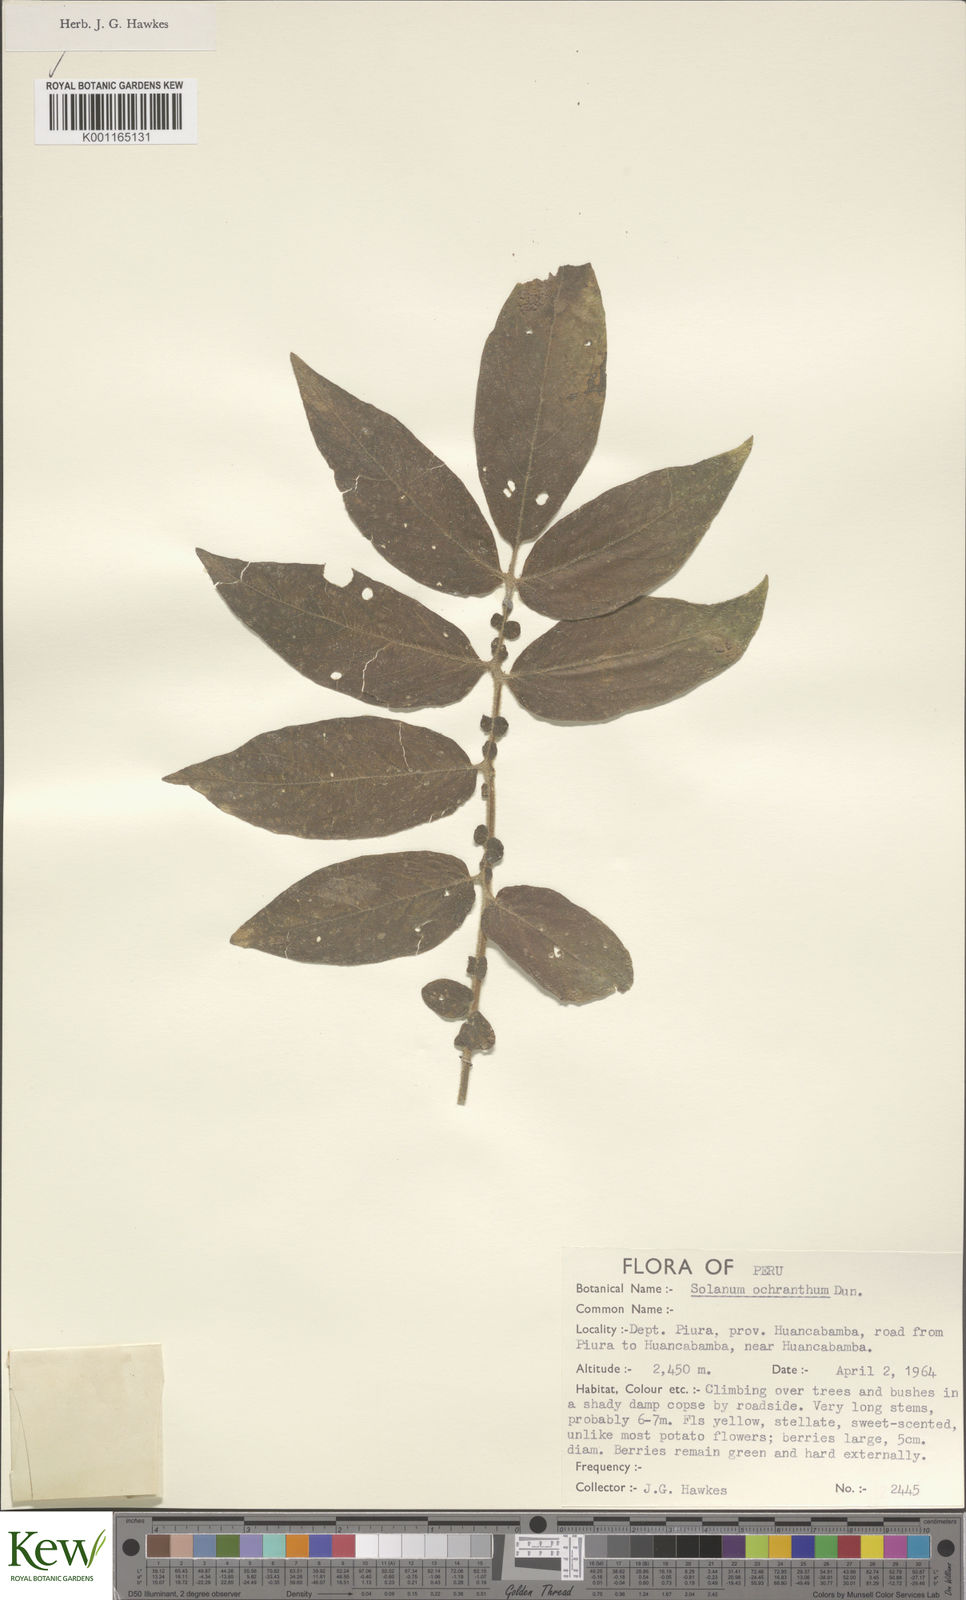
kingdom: Plantae
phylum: Tracheophyta
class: Magnoliopsida
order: Solanales
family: Solanaceae
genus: Solanum
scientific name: Solanum ochranthum
